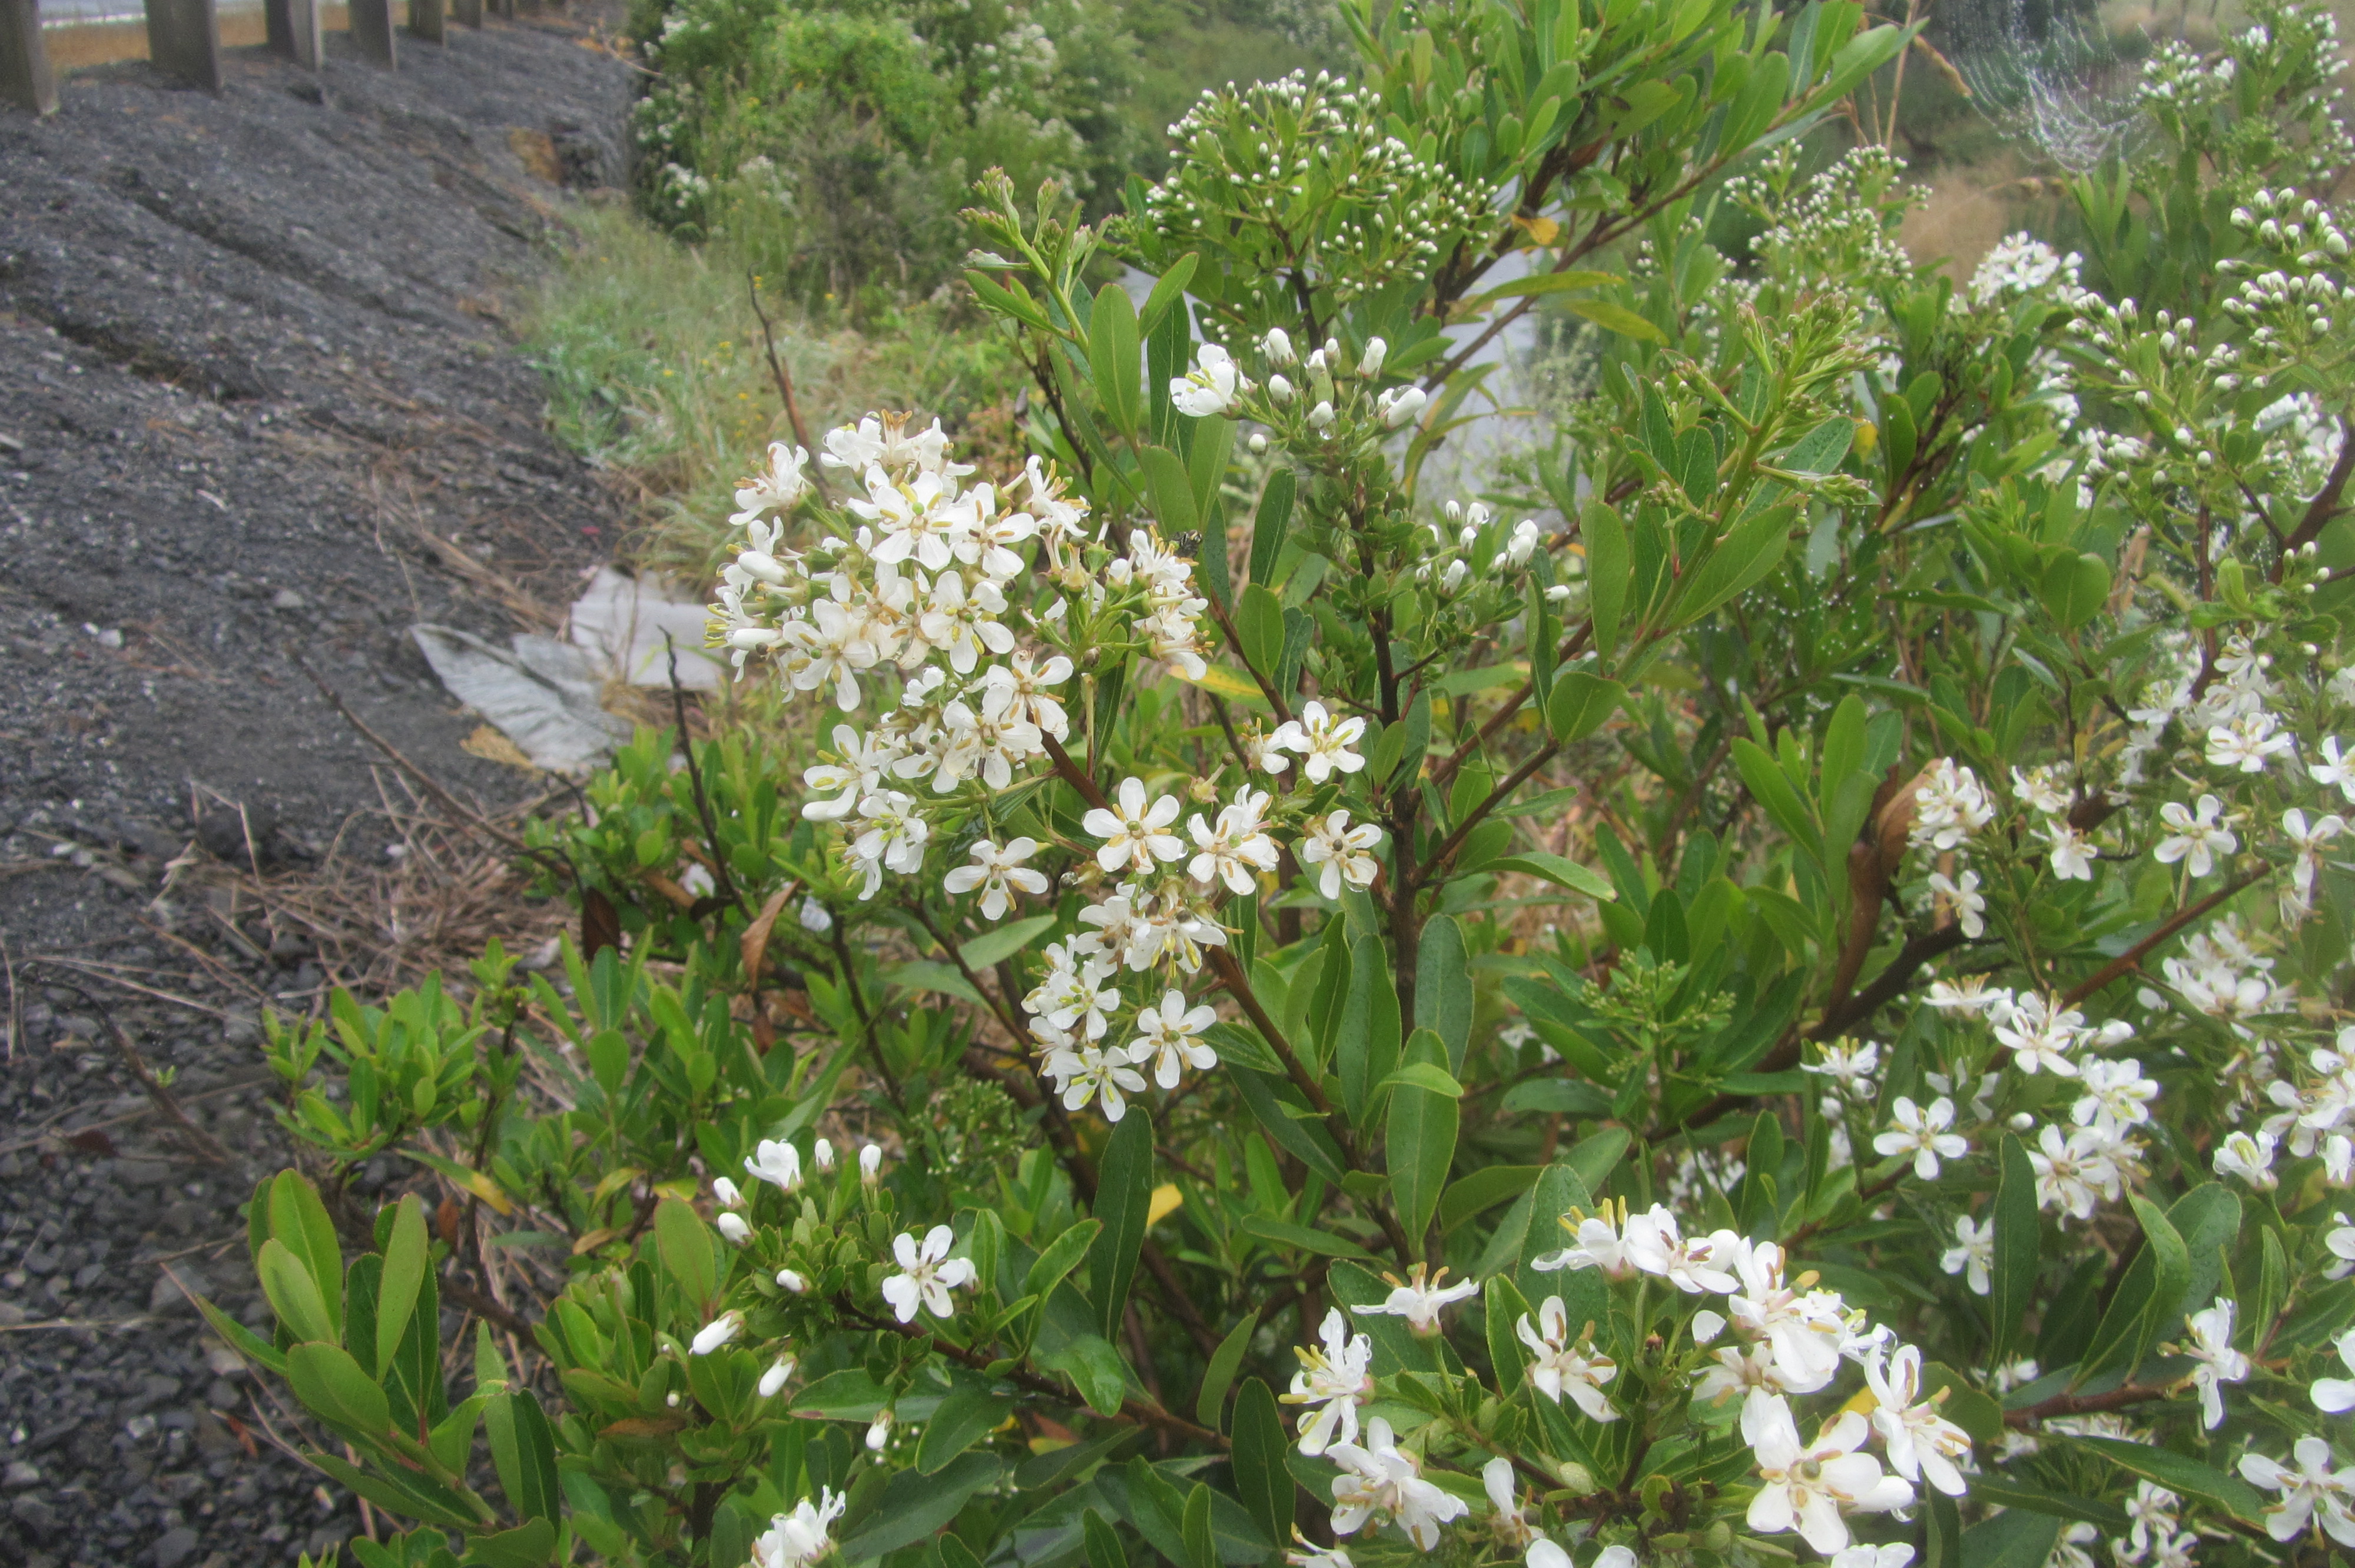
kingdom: Plantae
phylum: Tracheophyta
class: Magnoliopsida
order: Escalloniales
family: Escalloniaceae
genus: Escallonia
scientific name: Escallonia bifida
